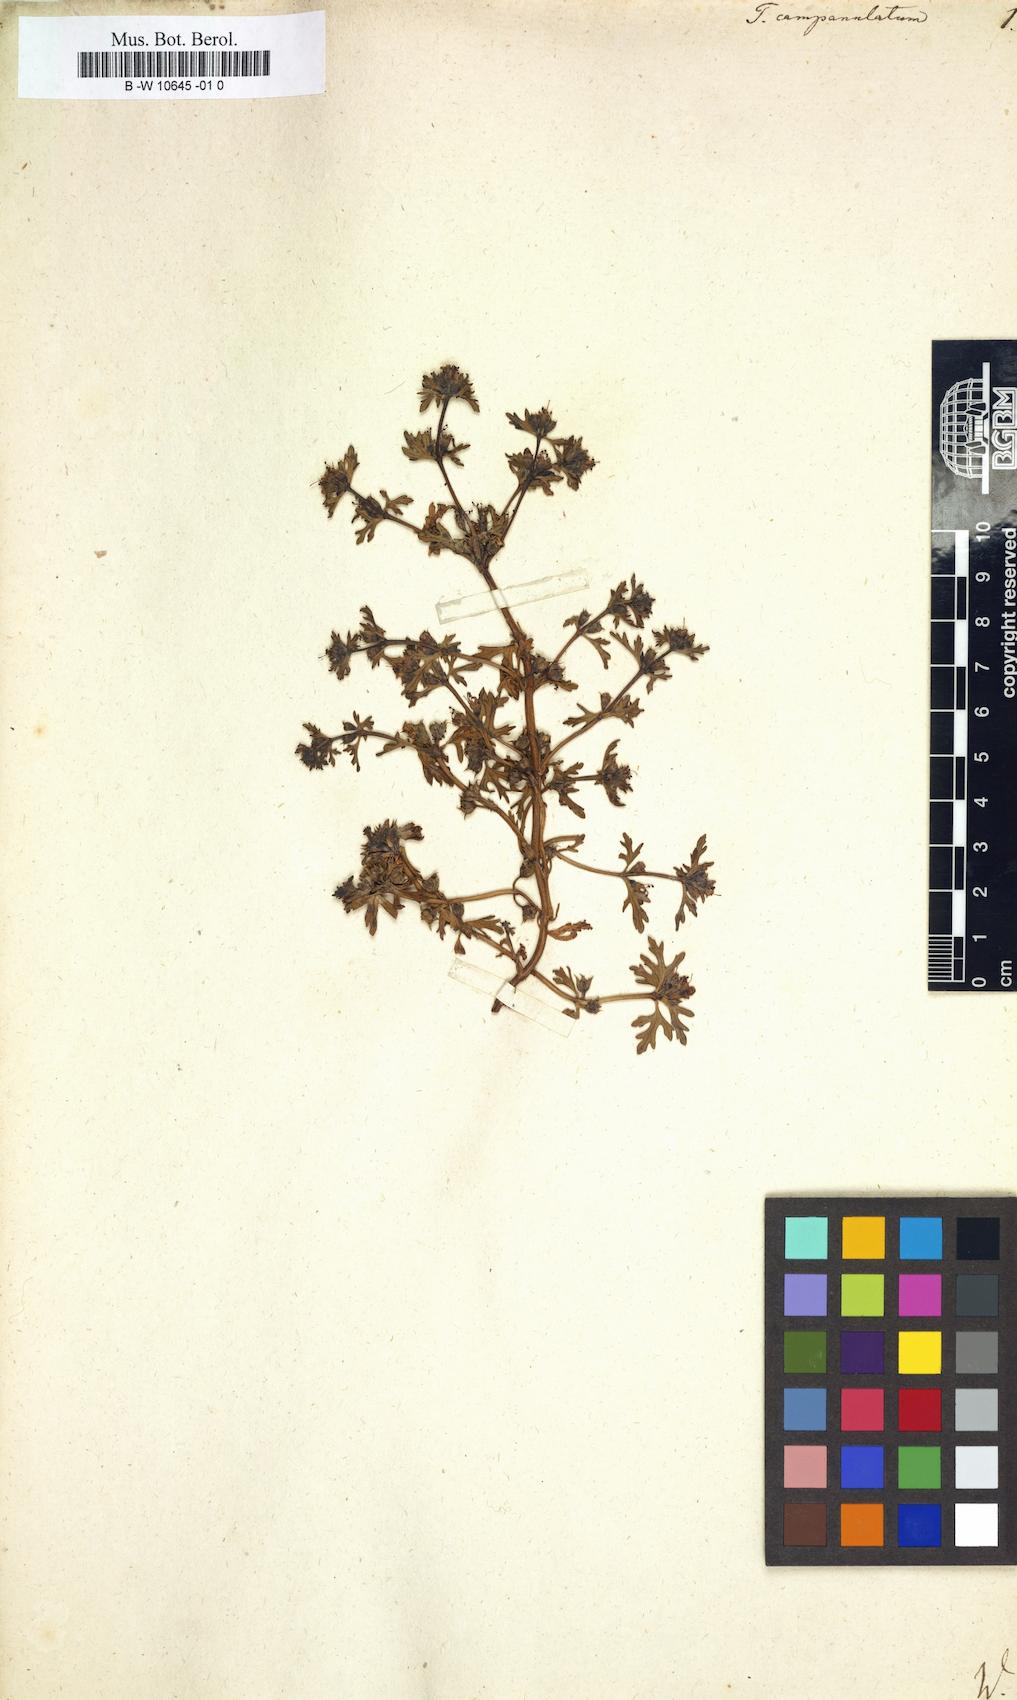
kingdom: Plantae
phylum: Tracheophyta
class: Magnoliopsida
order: Lamiales
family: Lamiaceae
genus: Teucrium
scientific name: Teucrium campanulatum
